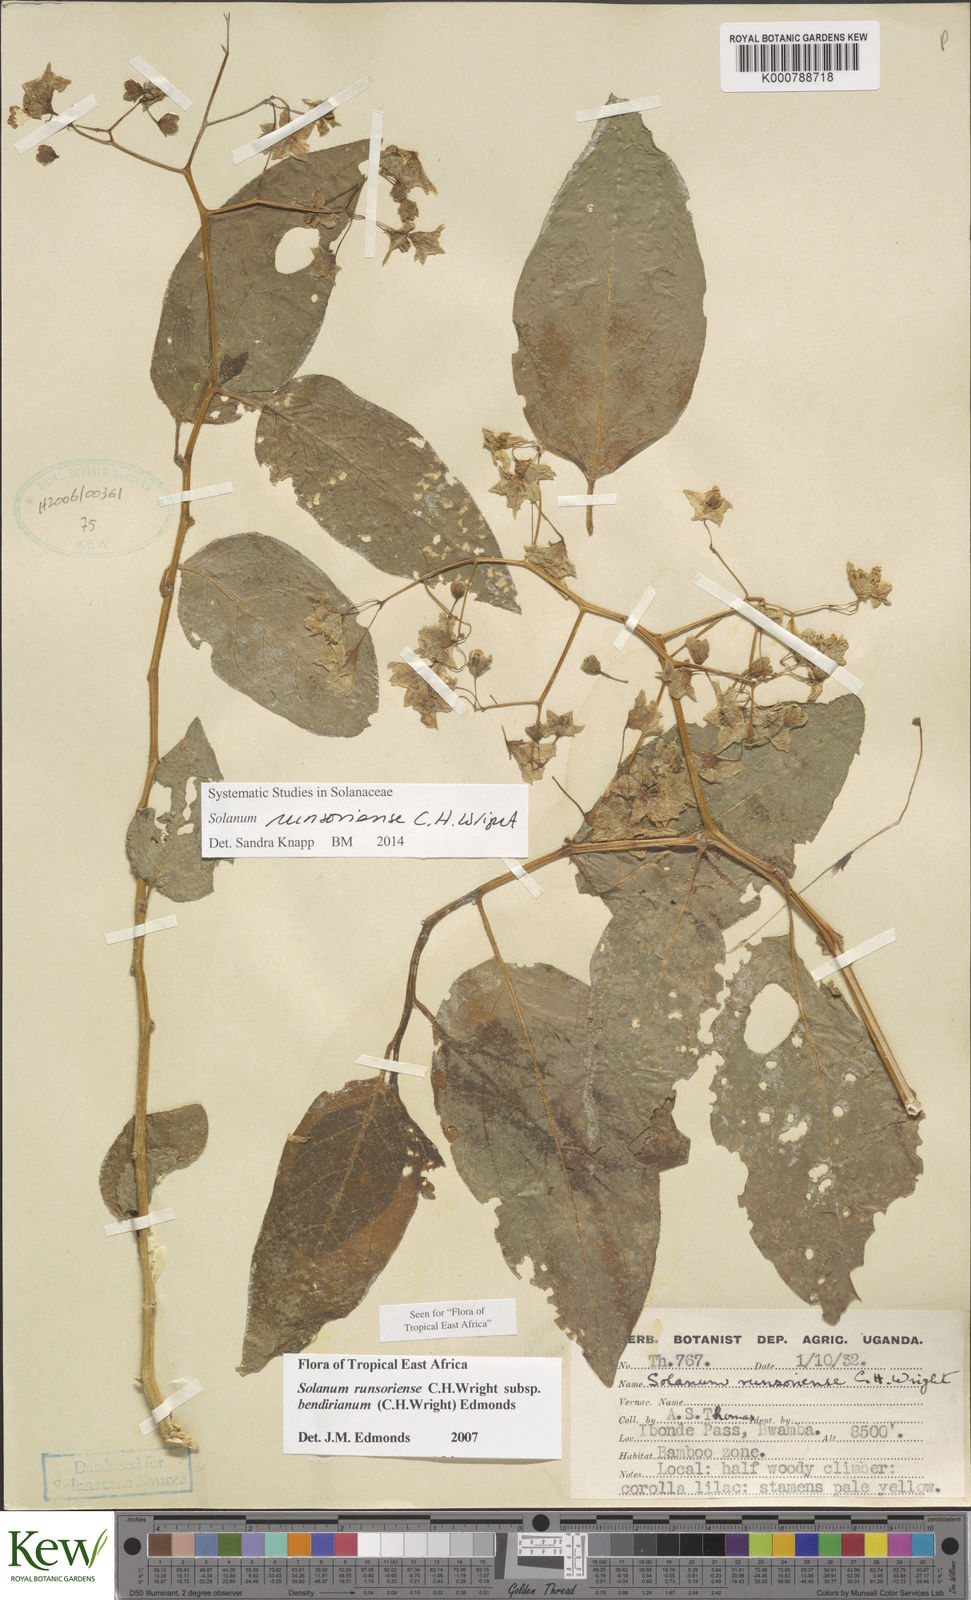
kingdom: Plantae
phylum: Tracheophyta
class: Magnoliopsida
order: Solanales
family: Solanaceae
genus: Solanum
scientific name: Solanum runsoriense
